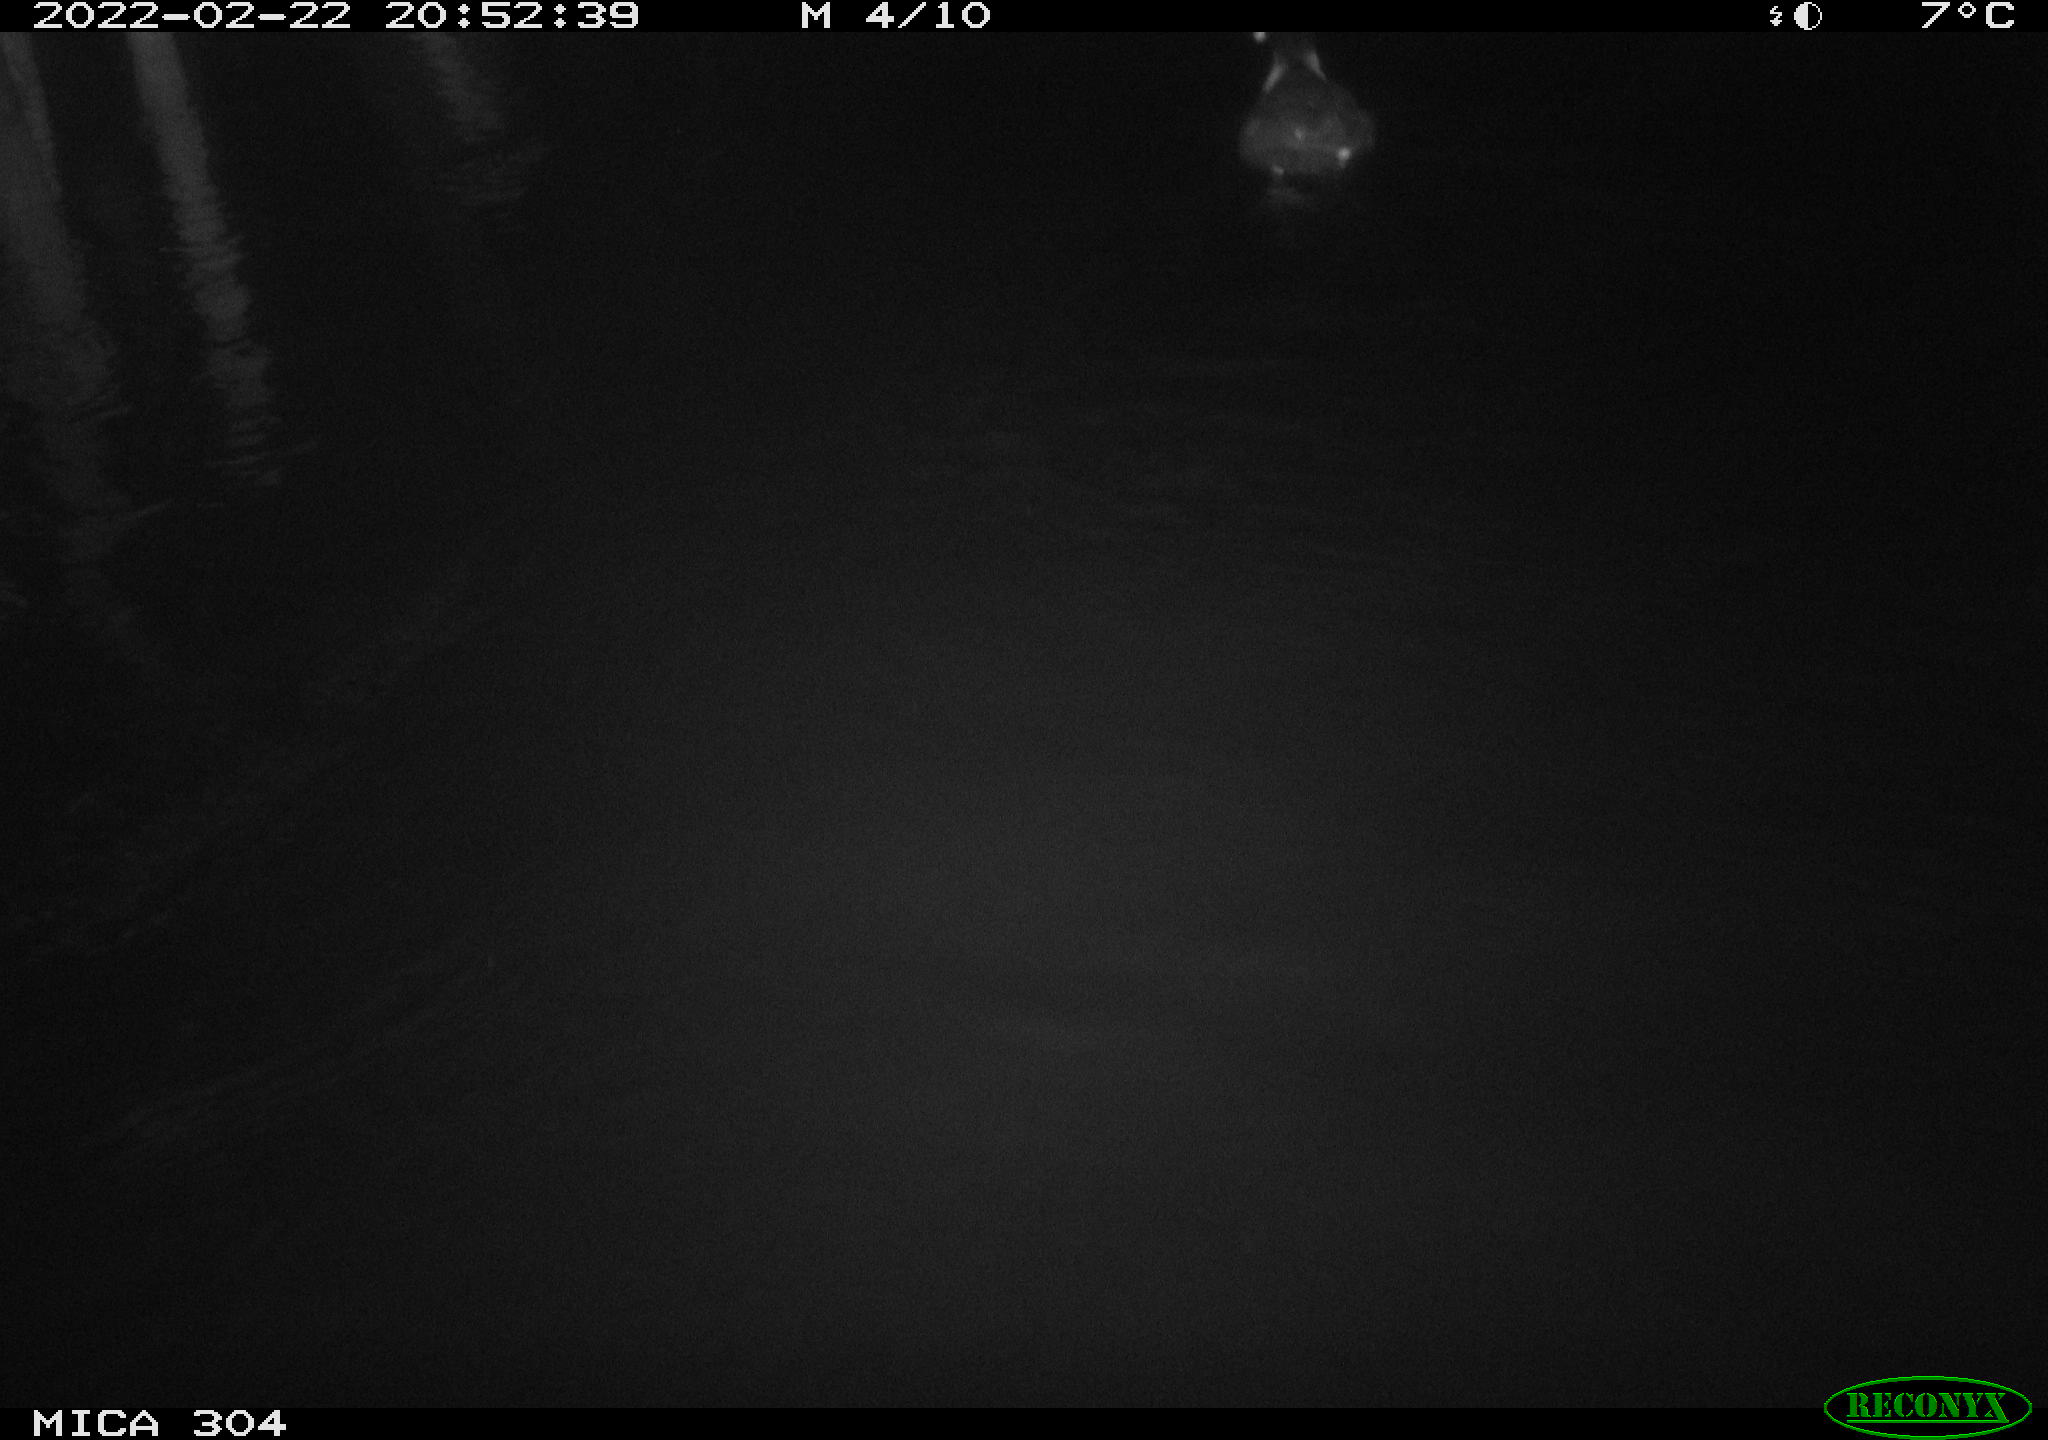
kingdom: Animalia
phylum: Chordata
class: Aves
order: Gruiformes
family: Rallidae
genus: Fulica
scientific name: Fulica atra
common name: Eurasian coot
